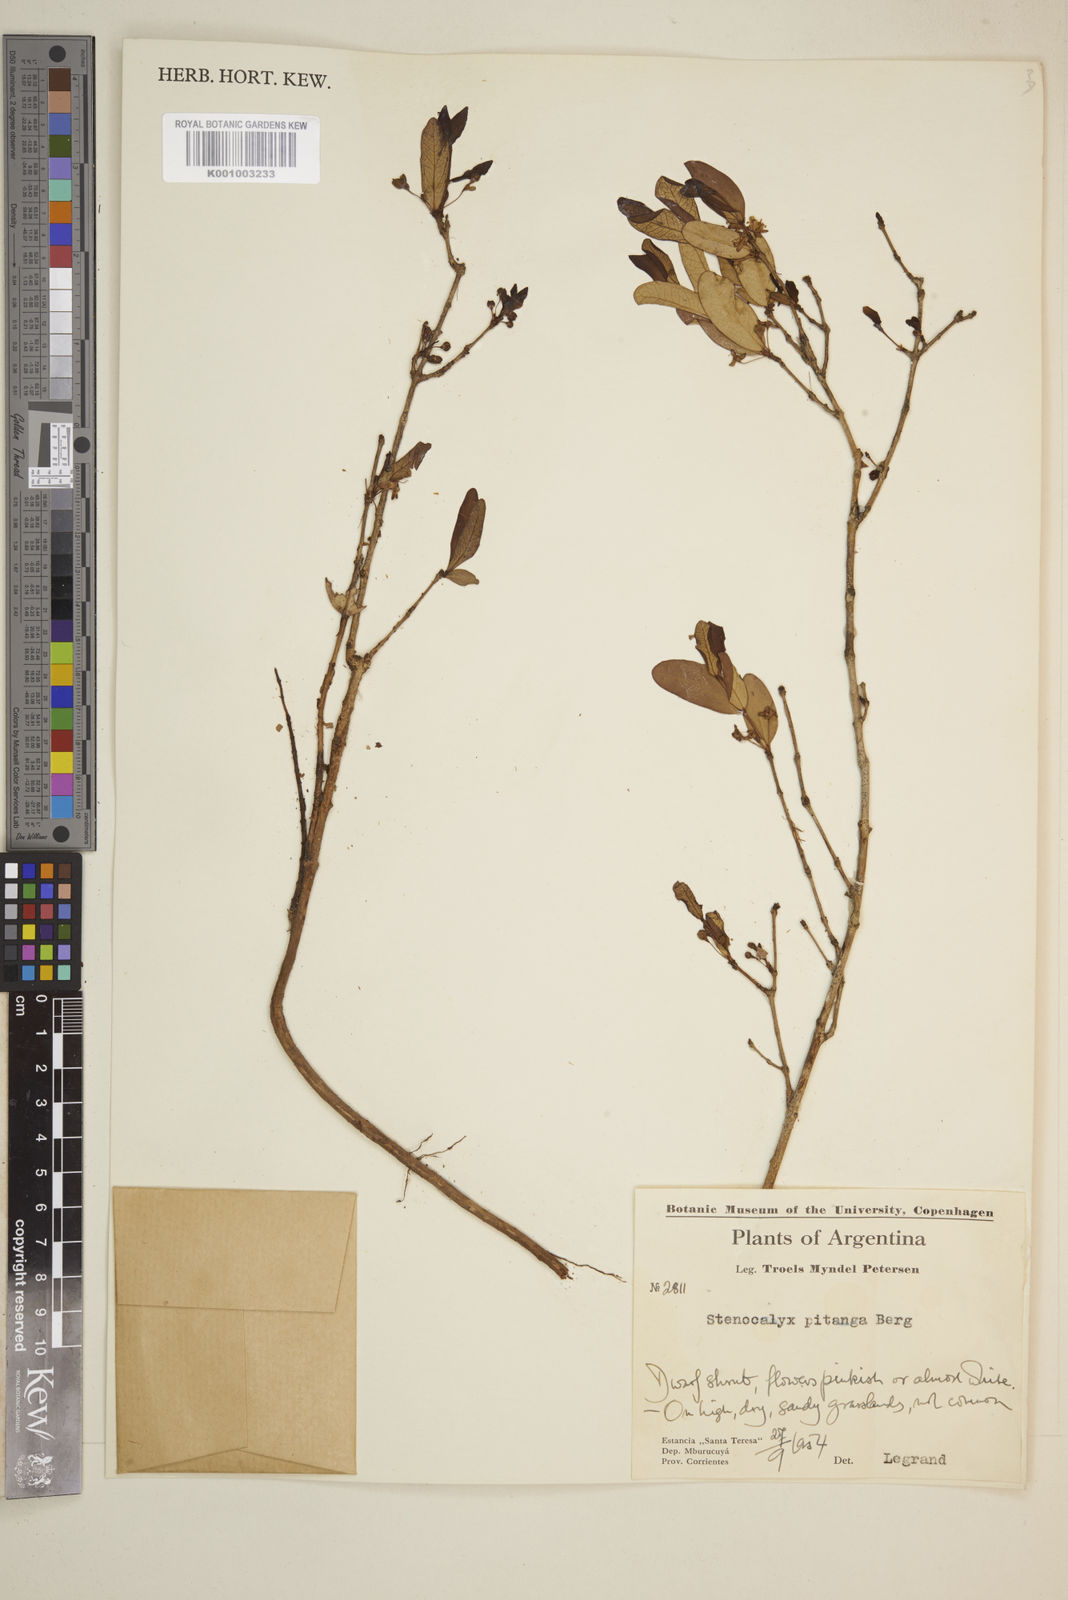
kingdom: Plantae
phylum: Tracheophyta
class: Magnoliopsida
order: Myrtales
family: Myrtaceae
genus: Eugenia
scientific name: Eugenia pitanga
